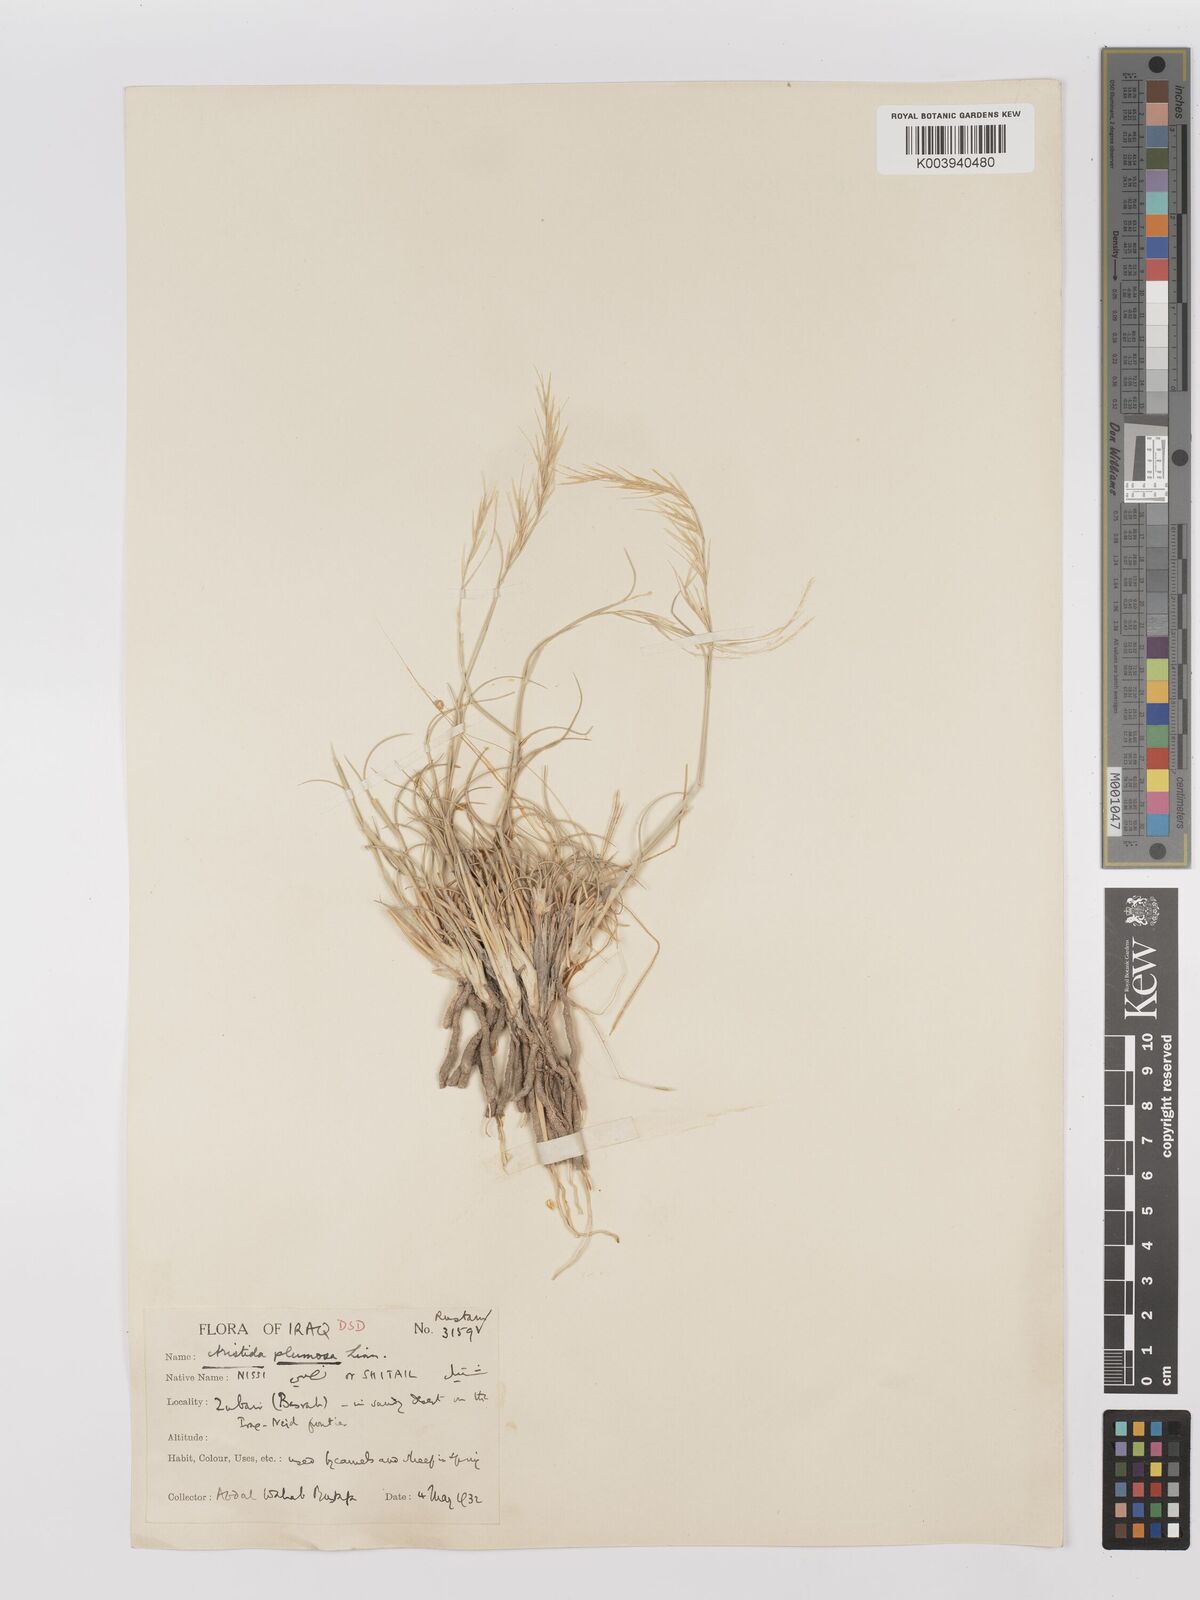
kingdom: Plantae
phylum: Tracheophyta
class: Liliopsida
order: Poales
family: Poaceae
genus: Stipagrostis
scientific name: Stipagrostis plumosa
